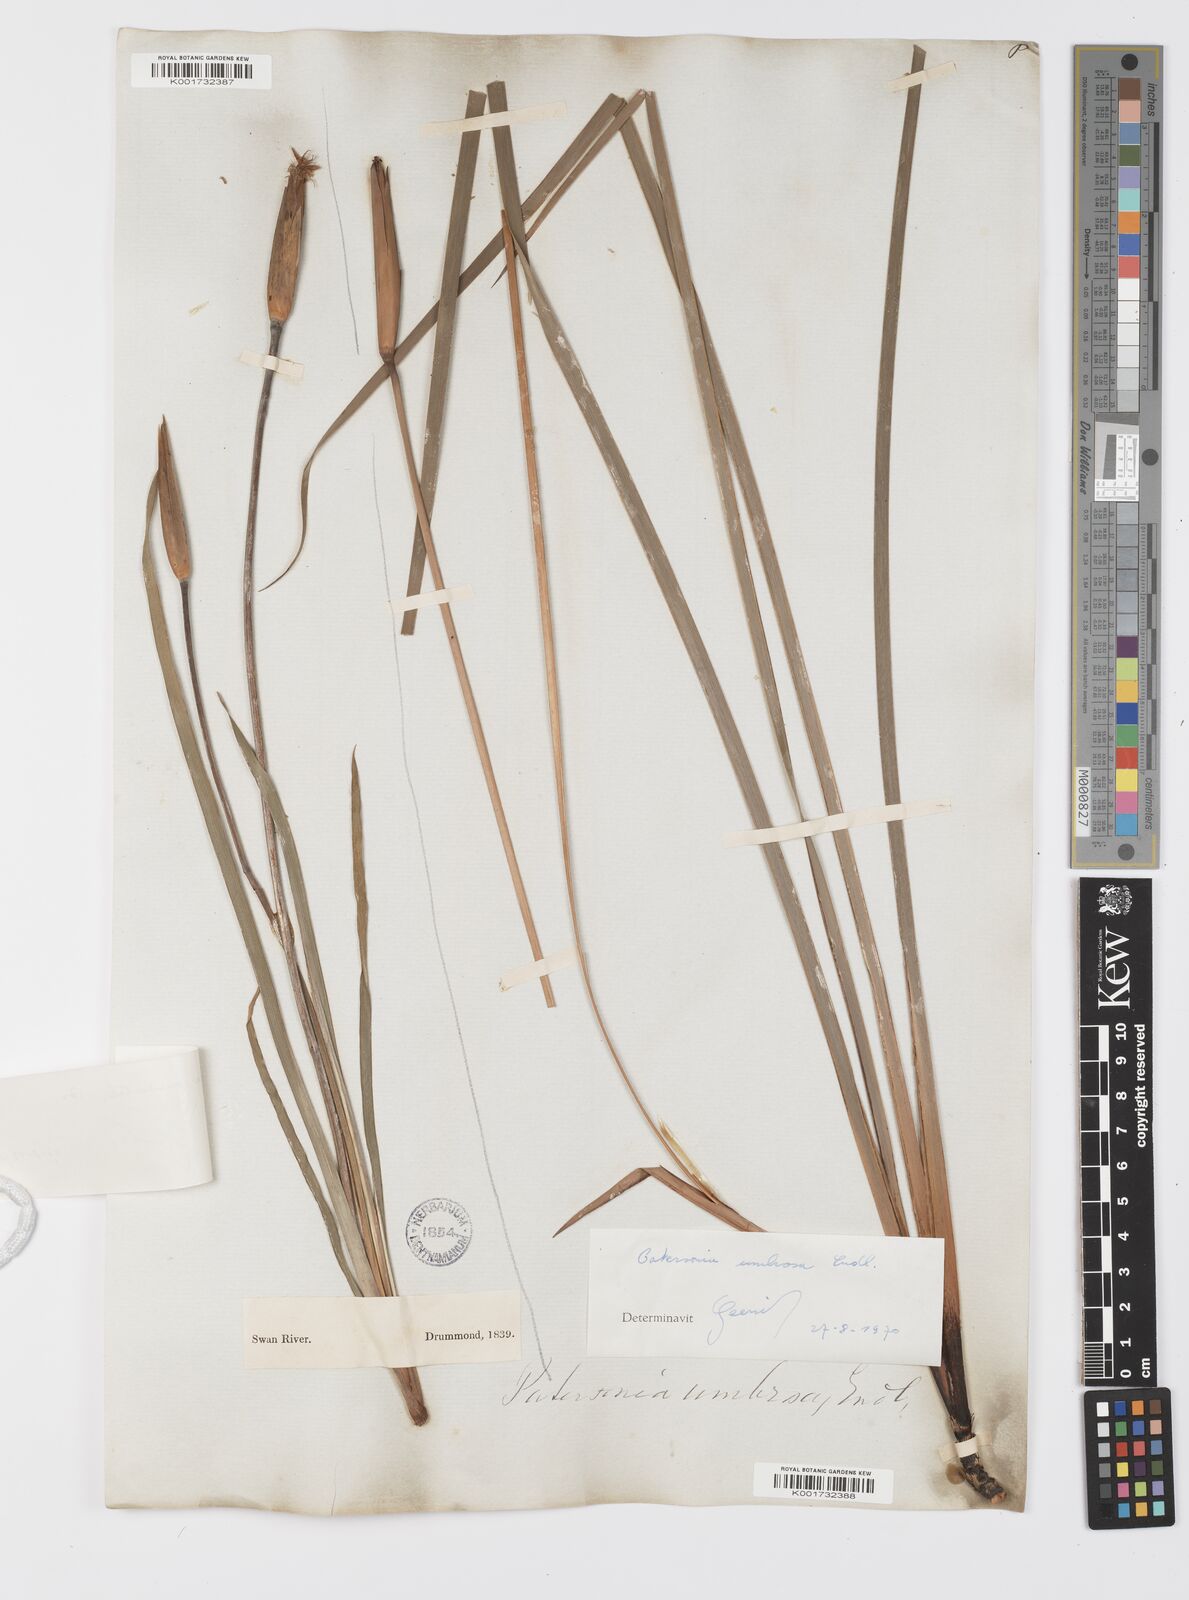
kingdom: Plantae
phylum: Tracheophyta
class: Liliopsida
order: Asparagales
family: Iridaceae
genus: Patersonia
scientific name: Patersonia umbrosa
